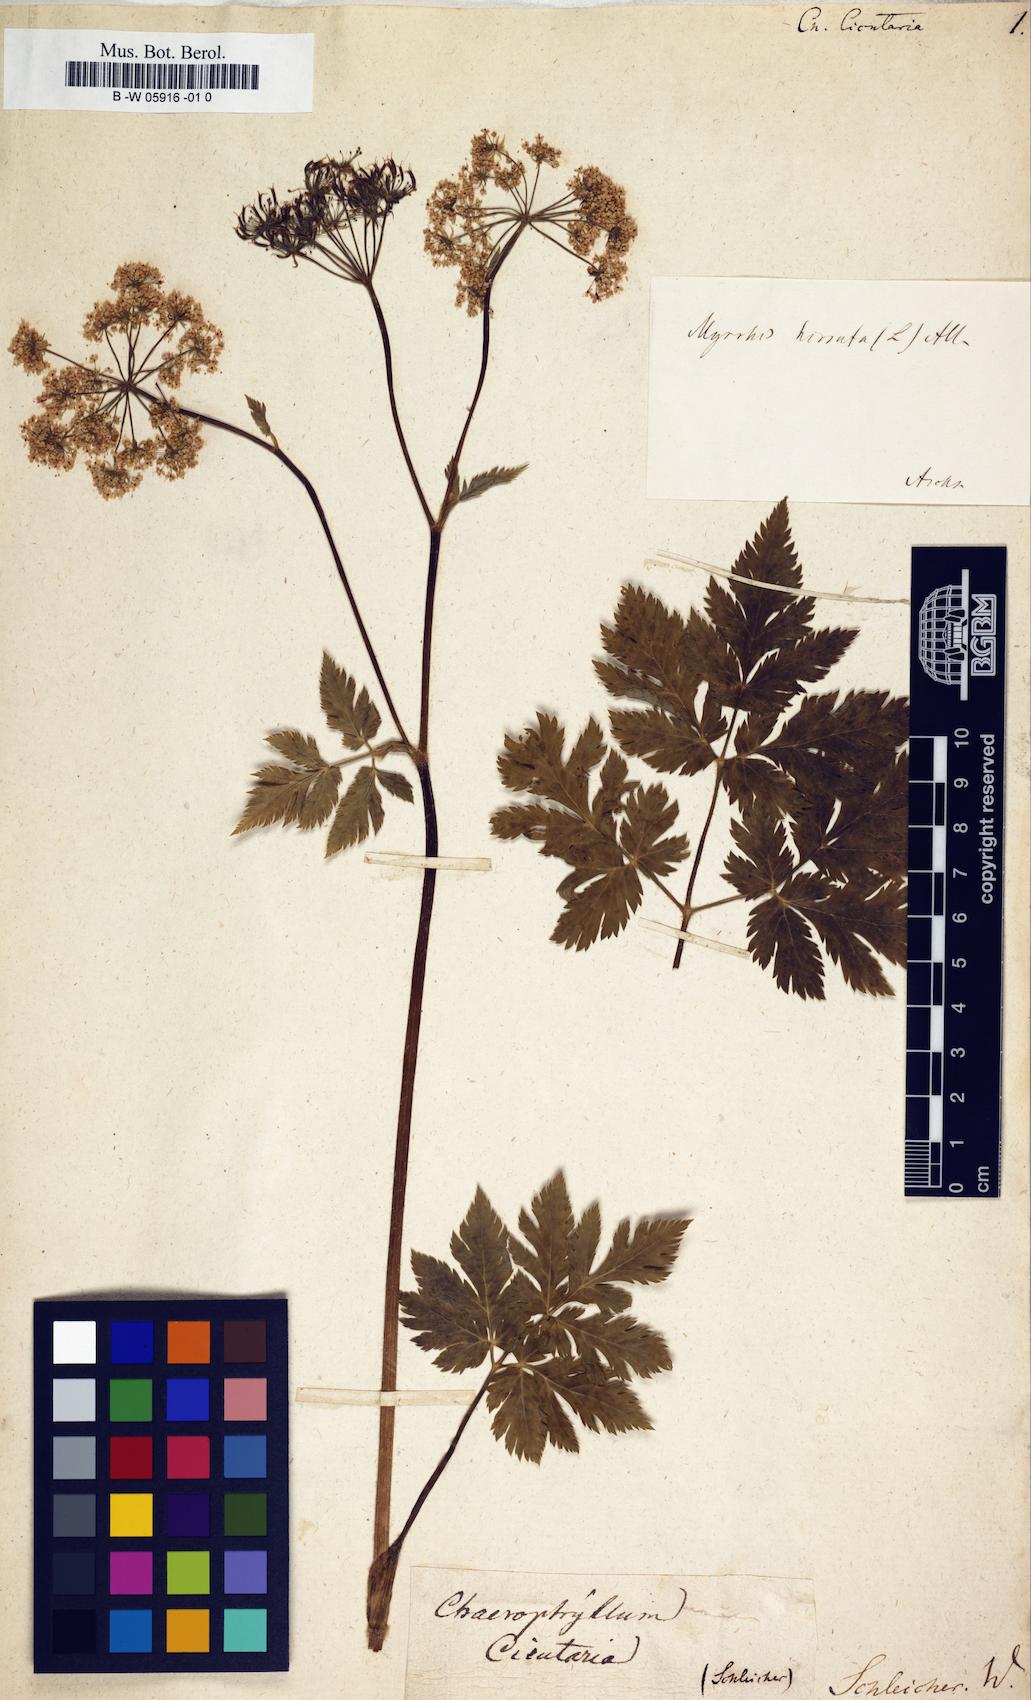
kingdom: Plantae
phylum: Tracheophyta
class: Magnoliopsida
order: Apiales
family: Apiaceae
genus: Chaerophyllum
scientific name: Chaerophyllum hirsutum
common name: Hairy chervil
